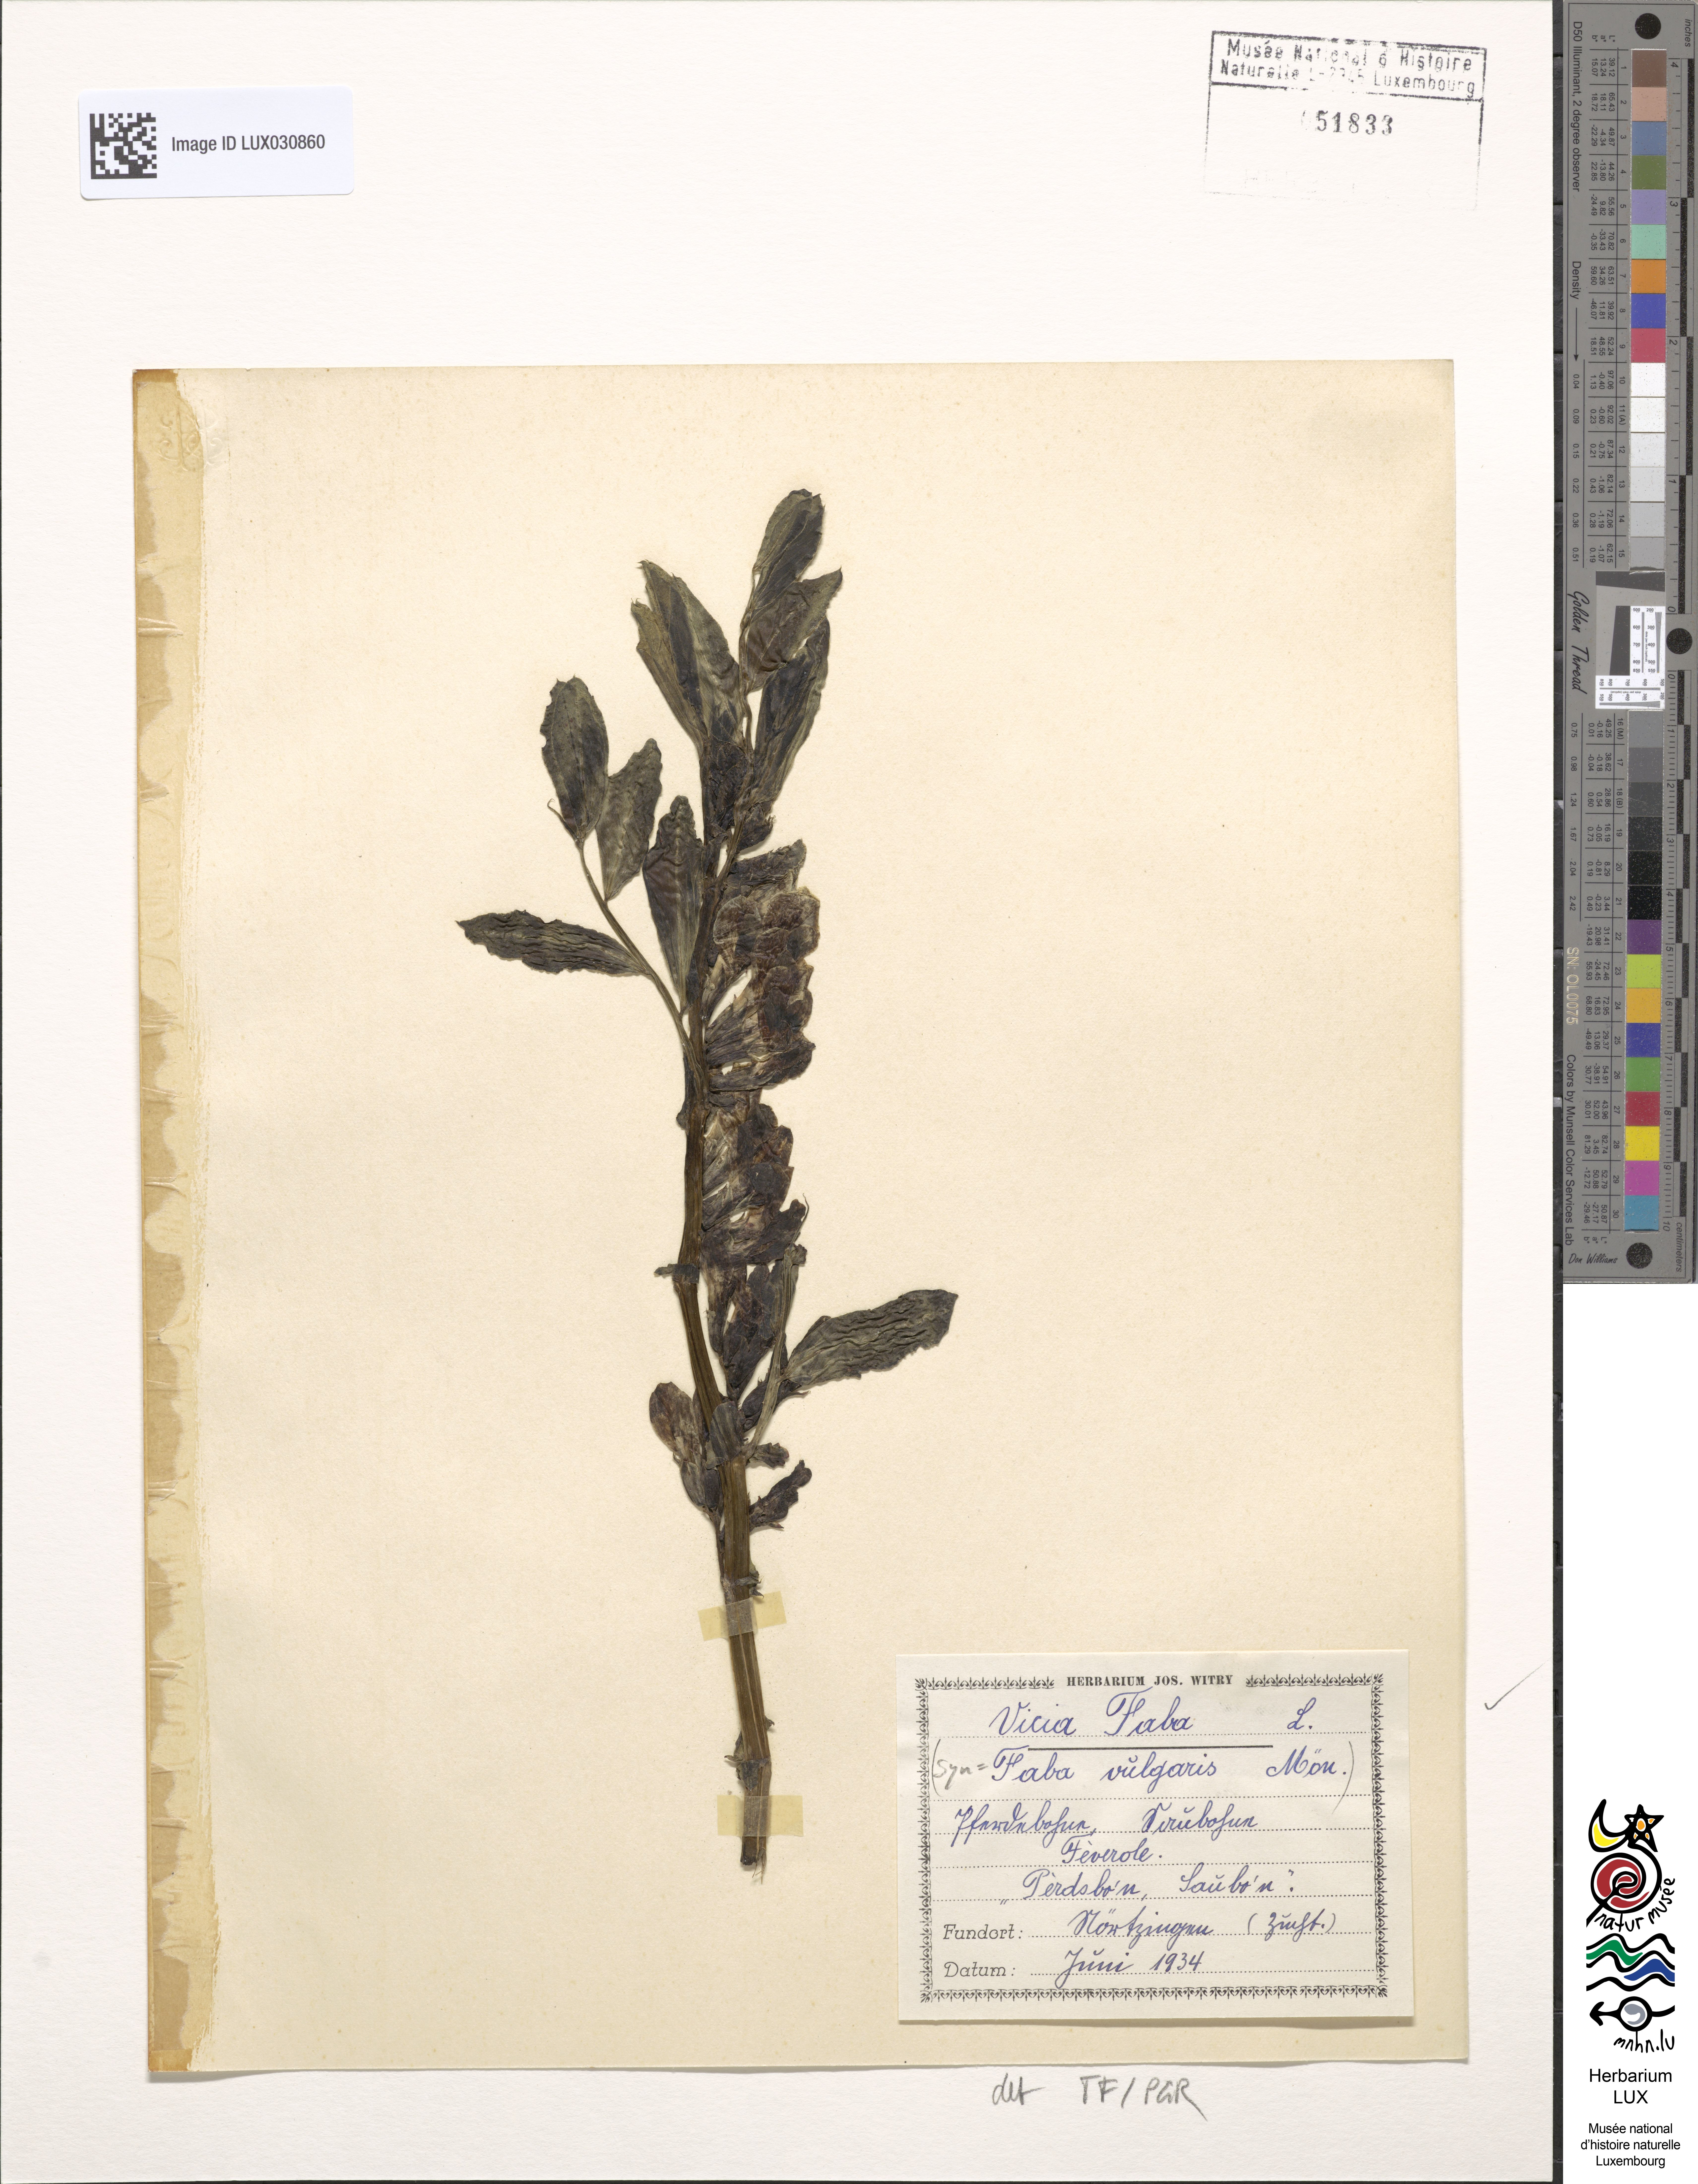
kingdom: Plantae
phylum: Tracheophyta
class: Magnoliopsida
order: Fabales
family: Fabaceae
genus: Vicia
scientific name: Vicia faba
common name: Broad bean
